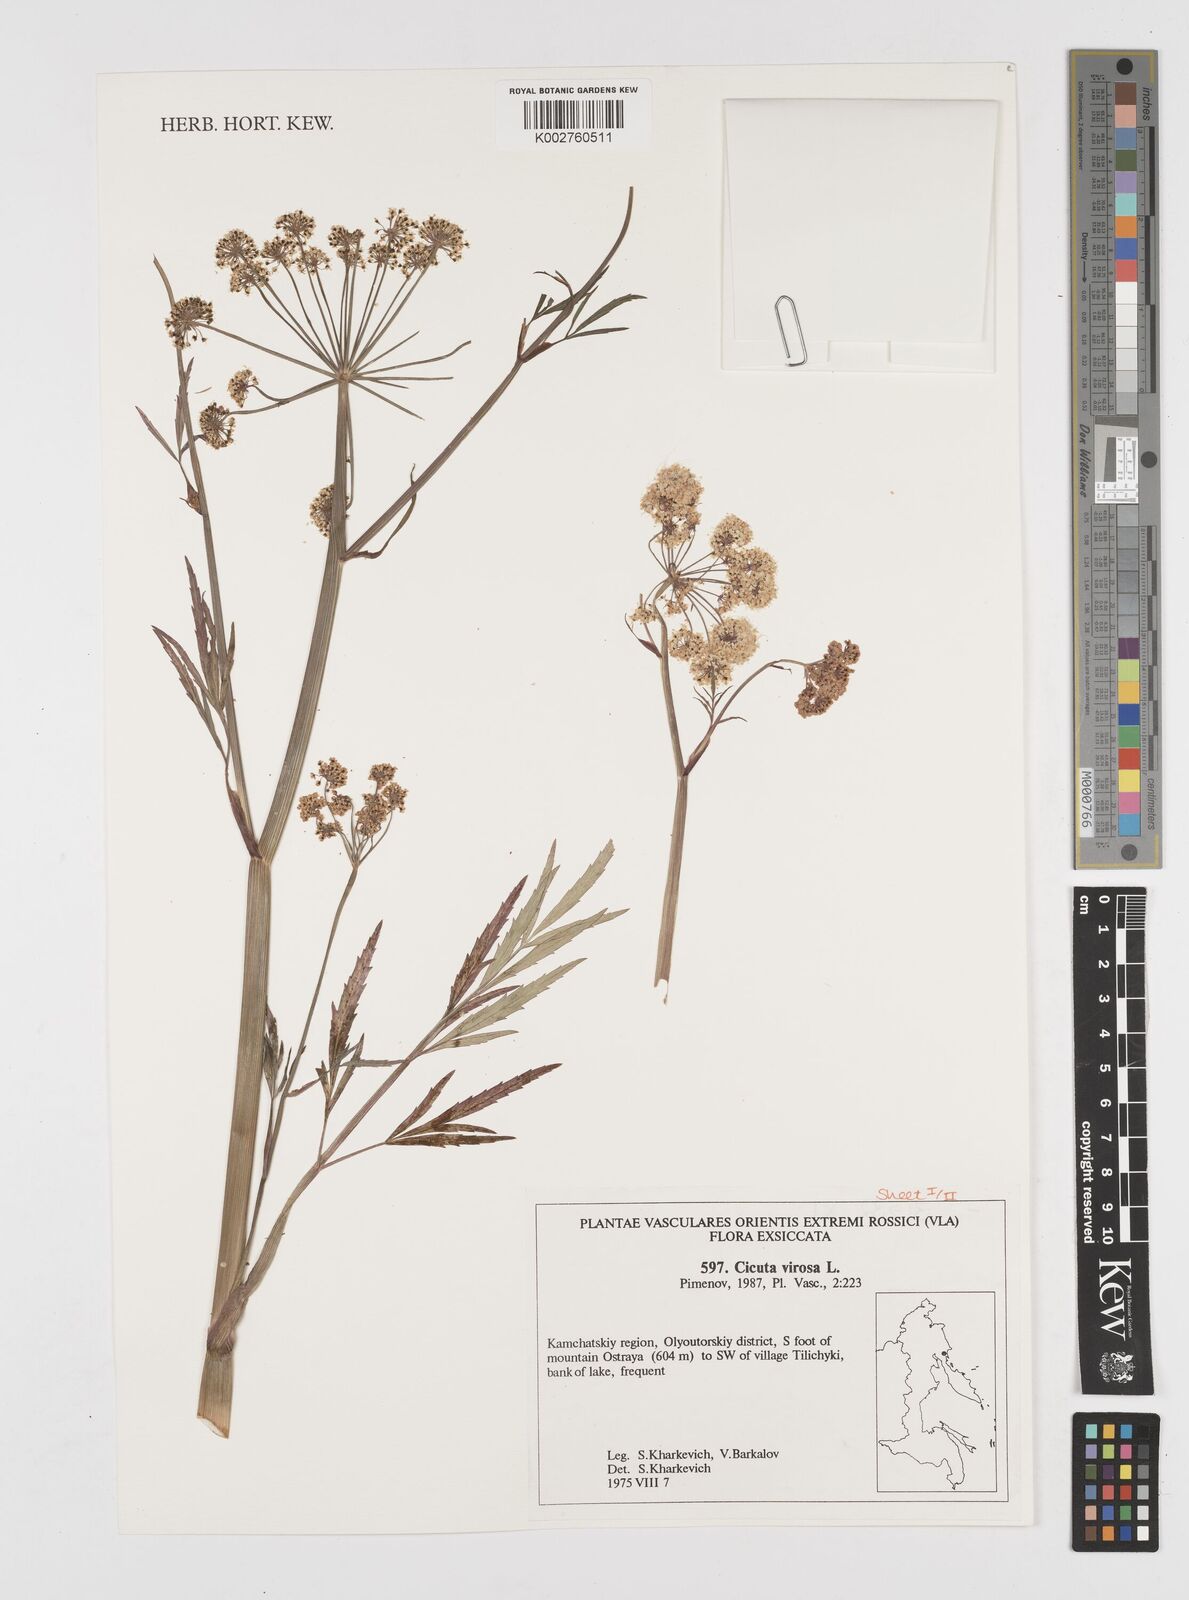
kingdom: Plantae
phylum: Tracheophyta
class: Magnoliopsida
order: Apiales
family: Apiaceae
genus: Cicuta
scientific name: Cicuta virosa
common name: Cowbane
